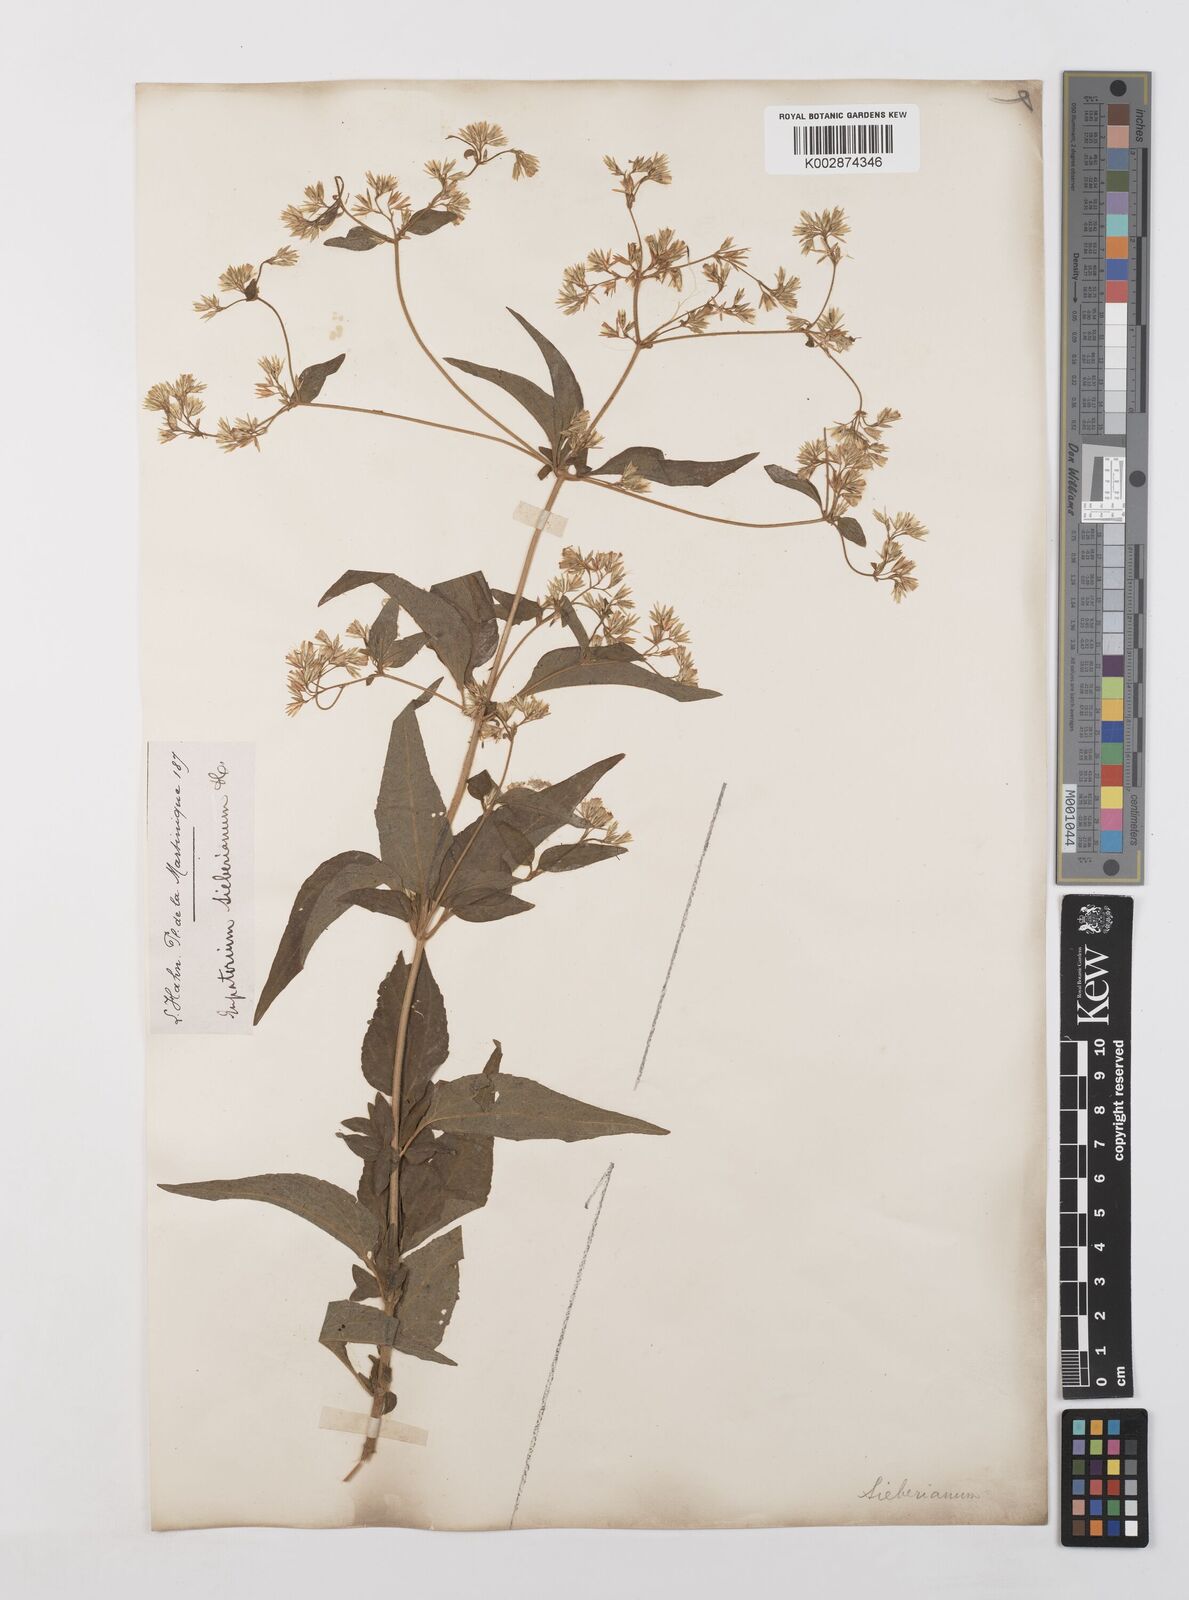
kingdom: Plantae
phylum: Tracheophyta
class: Magnoliopsida
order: Asterales
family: Asteraceae
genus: Condylidium
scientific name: Condylidium iresinoides
